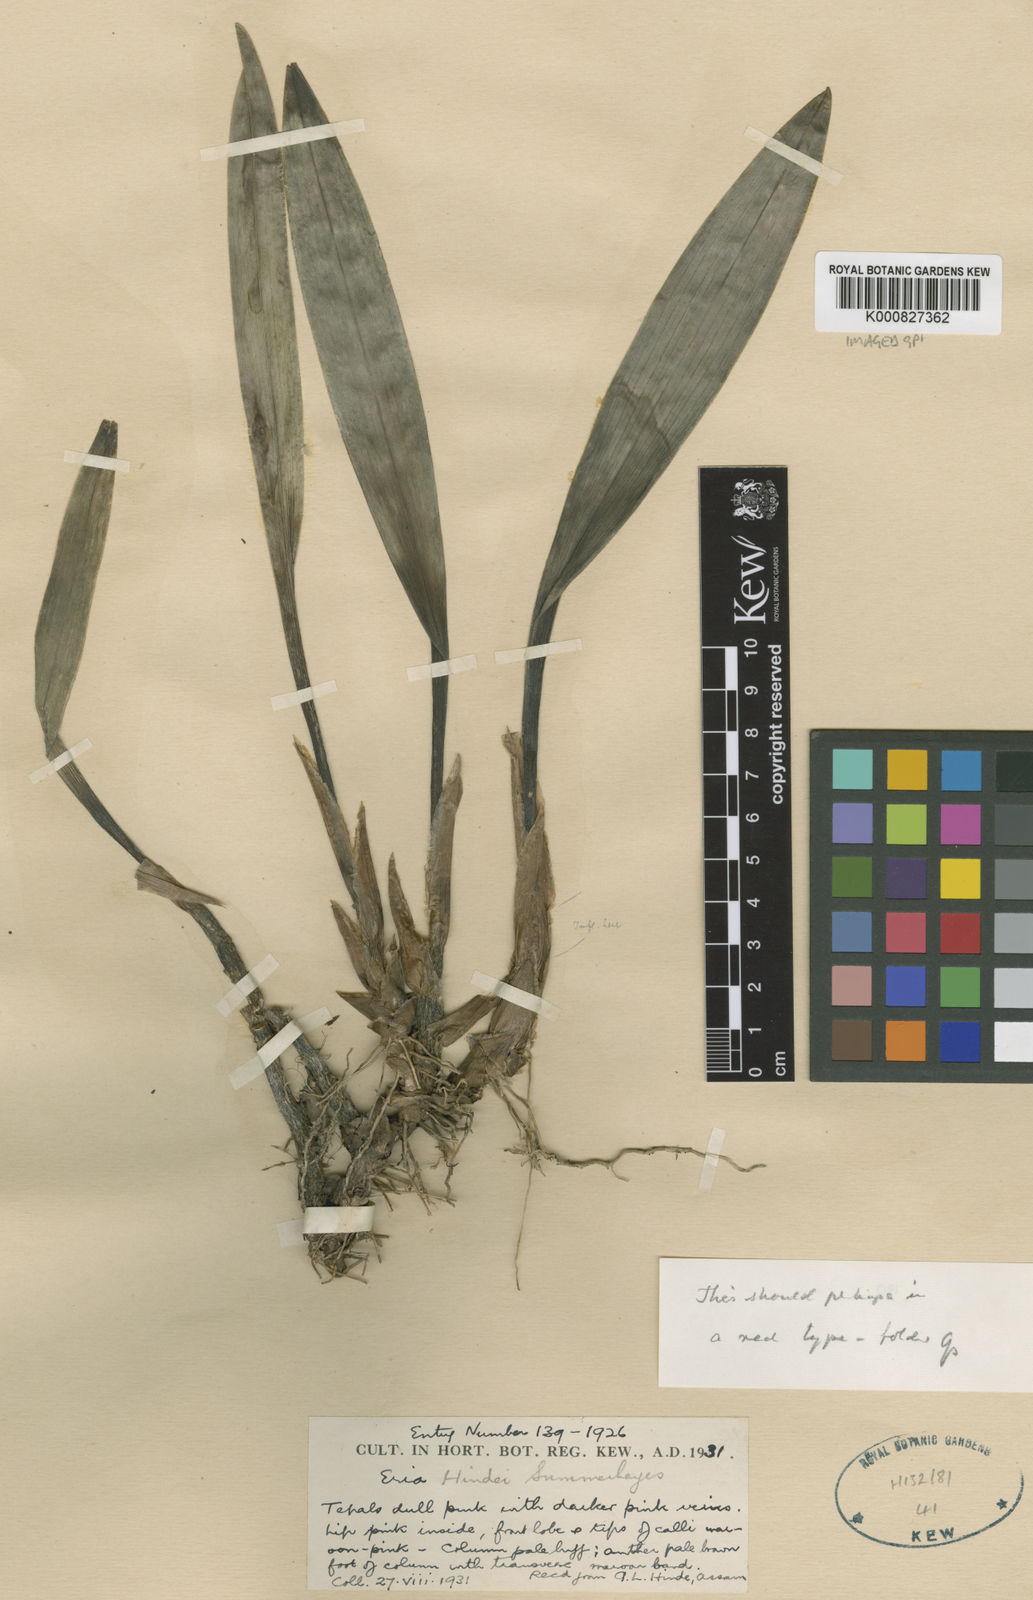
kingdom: Plantae
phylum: Tracheophyta
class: Liliopsida
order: Asparagales
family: Orchidaceae
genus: Bryobium
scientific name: Bryobium pudicum
